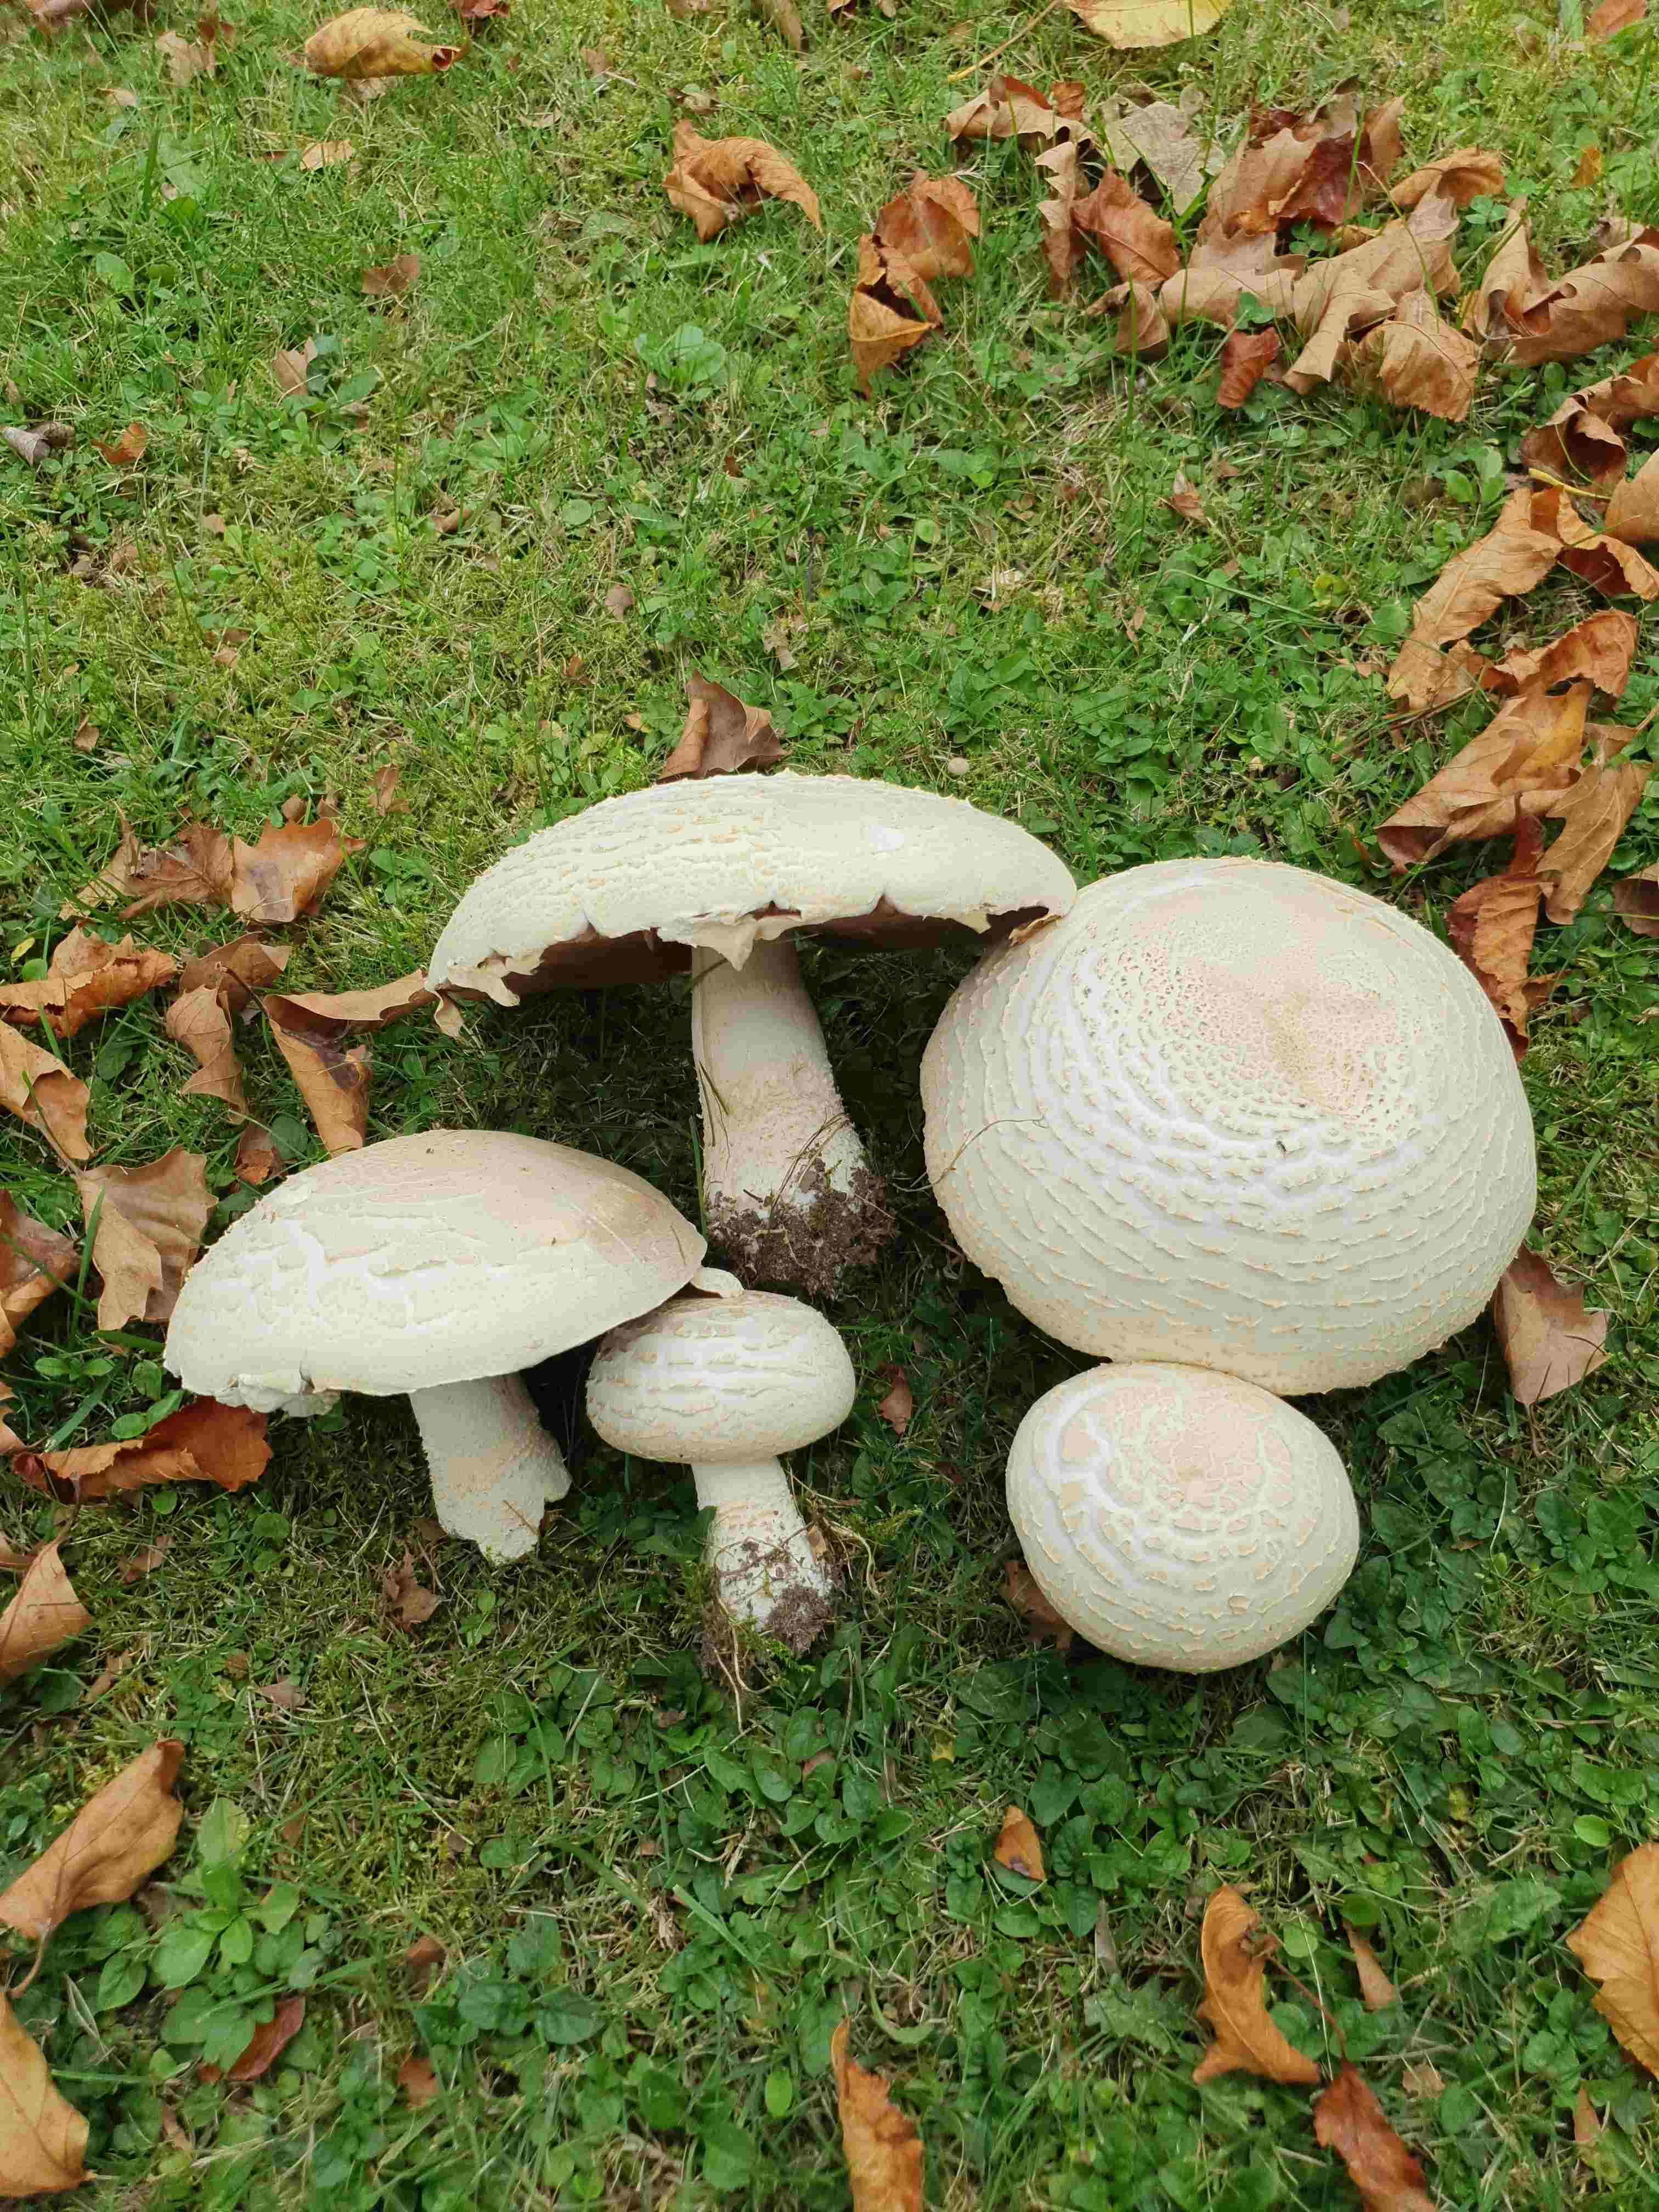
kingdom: Fungi
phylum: Basidiomycota
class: Agaricomycetes
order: Agaricales
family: Agaricaceae
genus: Agaricus
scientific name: Agaricus
